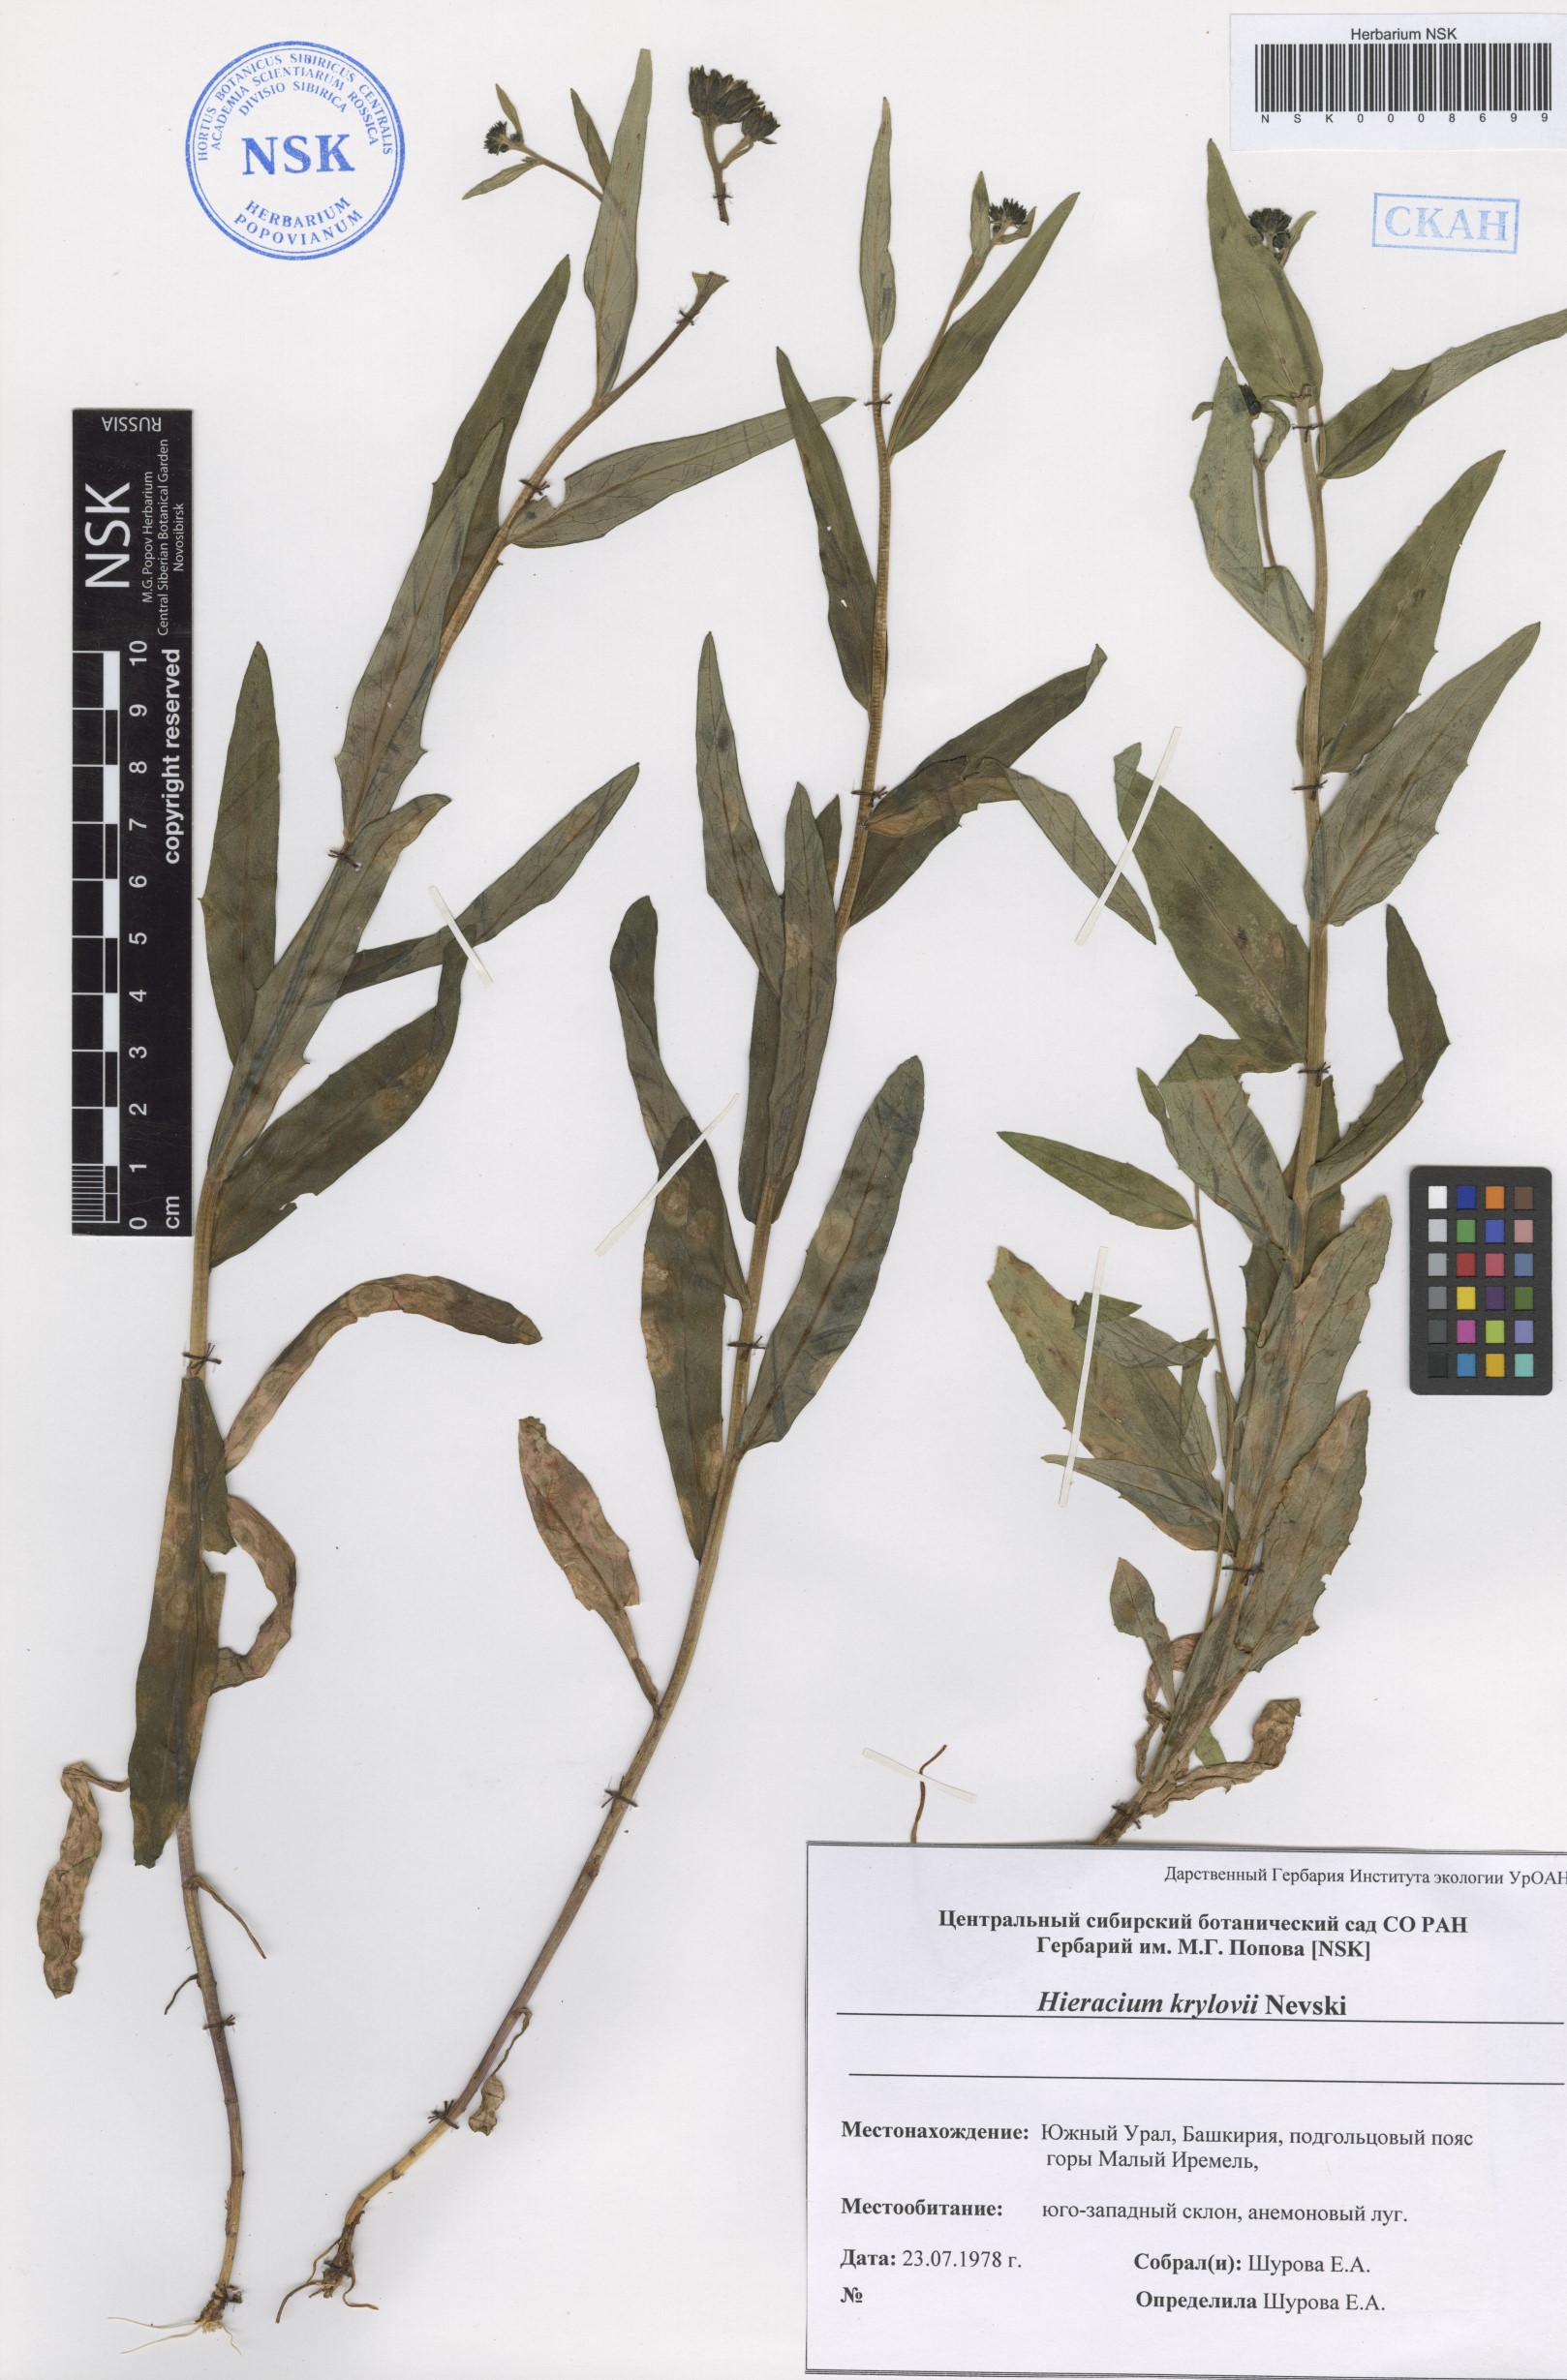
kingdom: Plantae
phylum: Tracheophyta
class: Magnoliopsida
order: Asterales
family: Asteraceae
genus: Hieracium
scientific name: Hieracium krylovii
